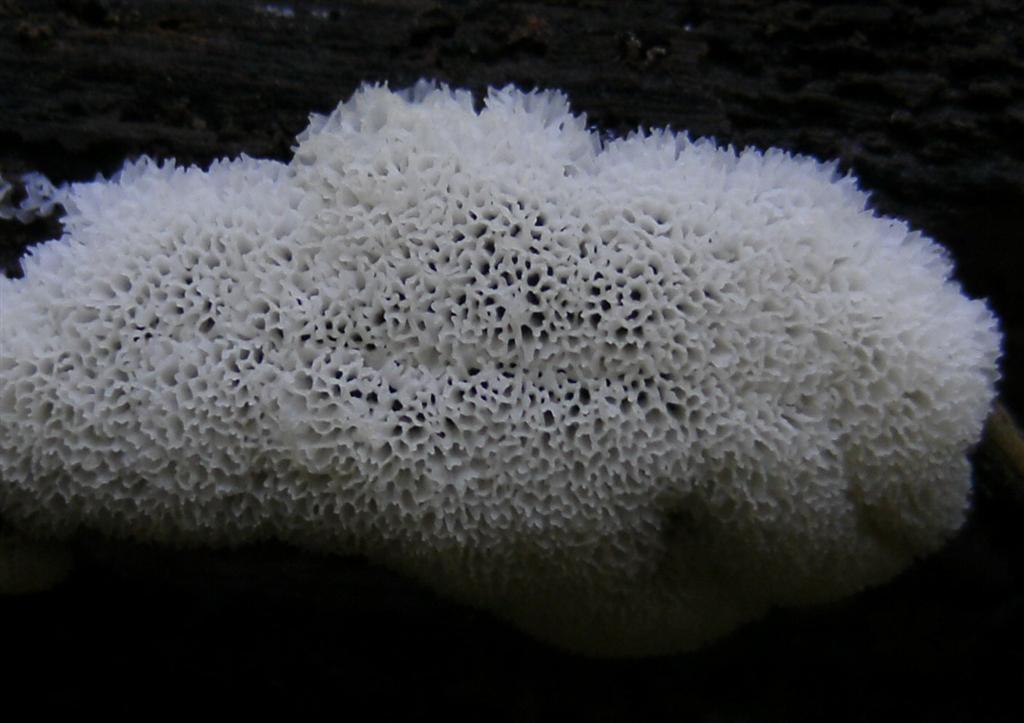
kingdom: Protozoa
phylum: Mycetozoa
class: Protosteliomycetes
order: Ceratiomyxales
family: Ceratiomyxaceae
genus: Ceratiomyxa
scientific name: Ceratiomyxa fruticulosa
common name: Honeycomb coral slime mold
